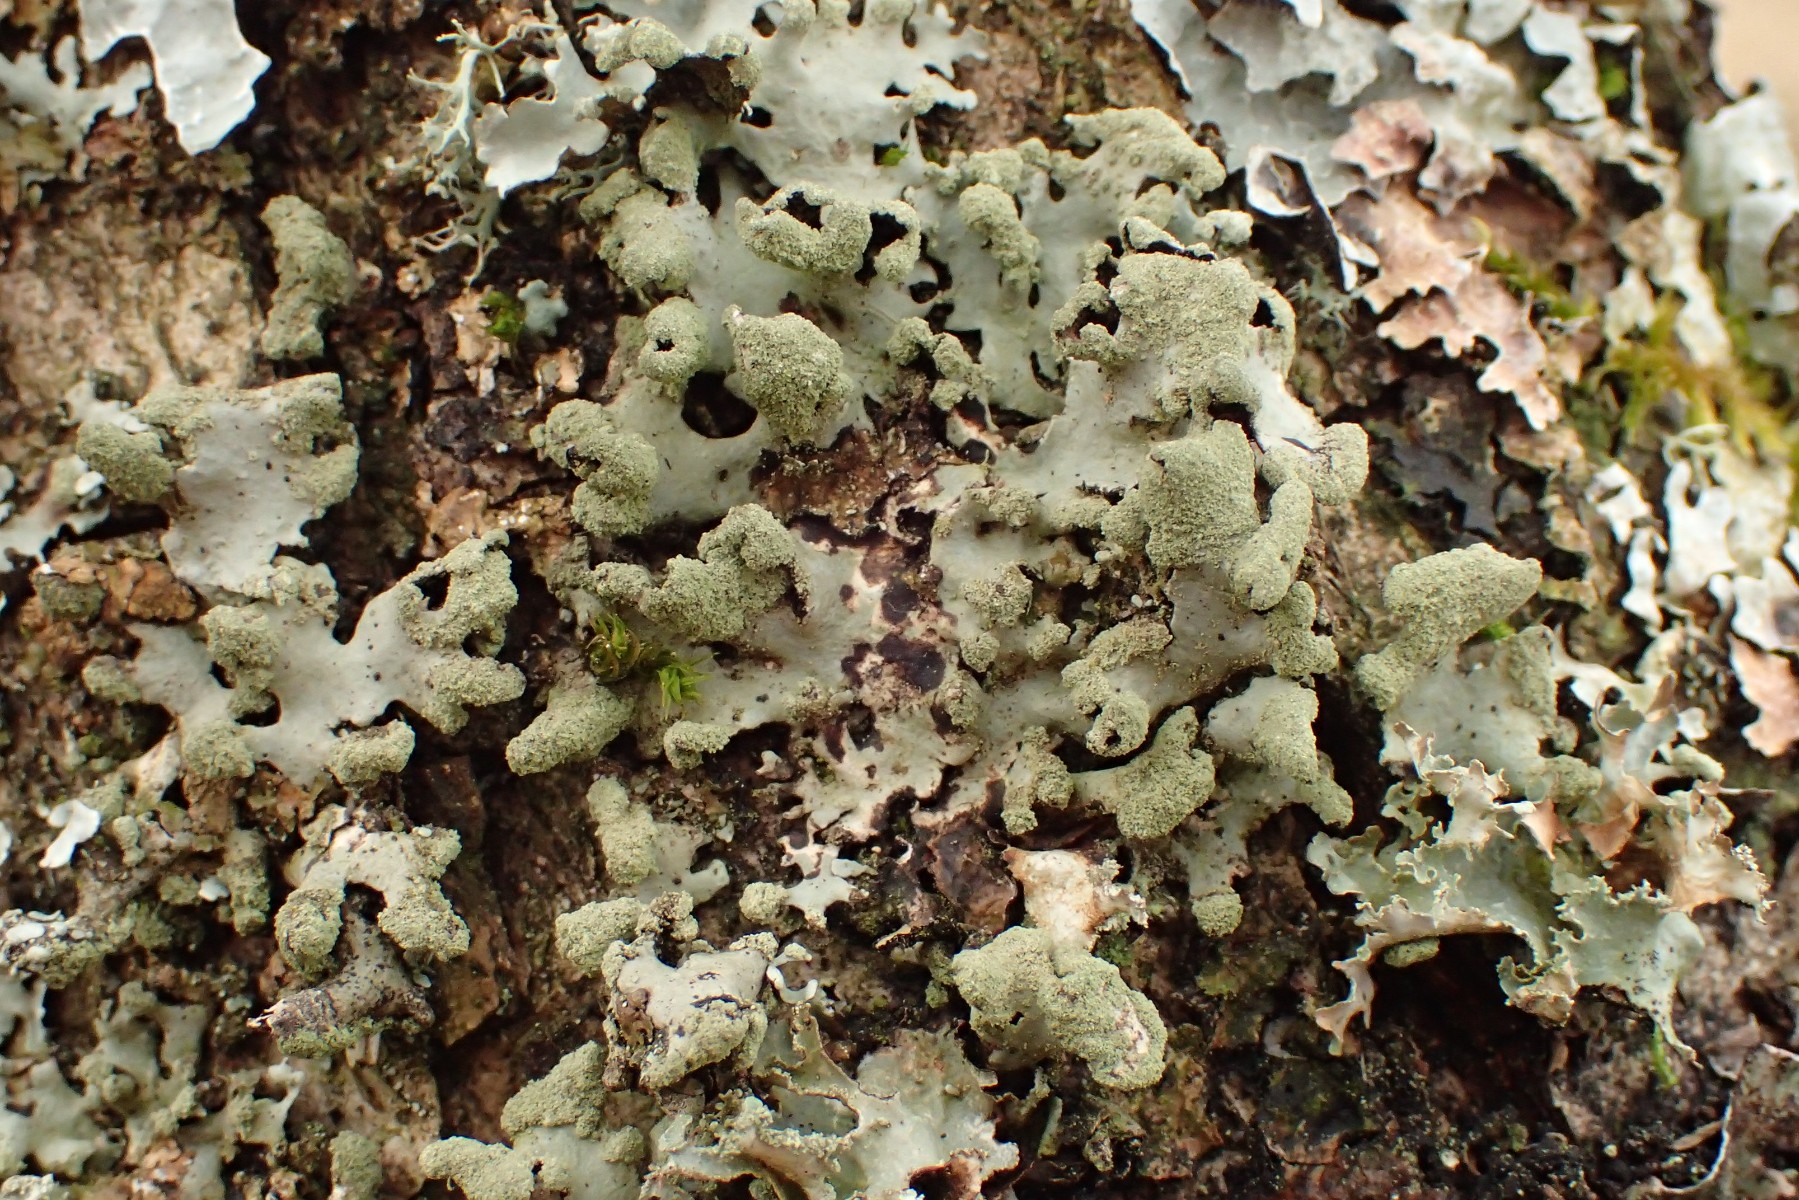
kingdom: Fungi
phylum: Ascomycota
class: Lecanoromycetes
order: Lecanorales
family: Parmeliaceae
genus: Hypotrachyna
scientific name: Hypotrachyna revoluta
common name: bleggrå skållav
